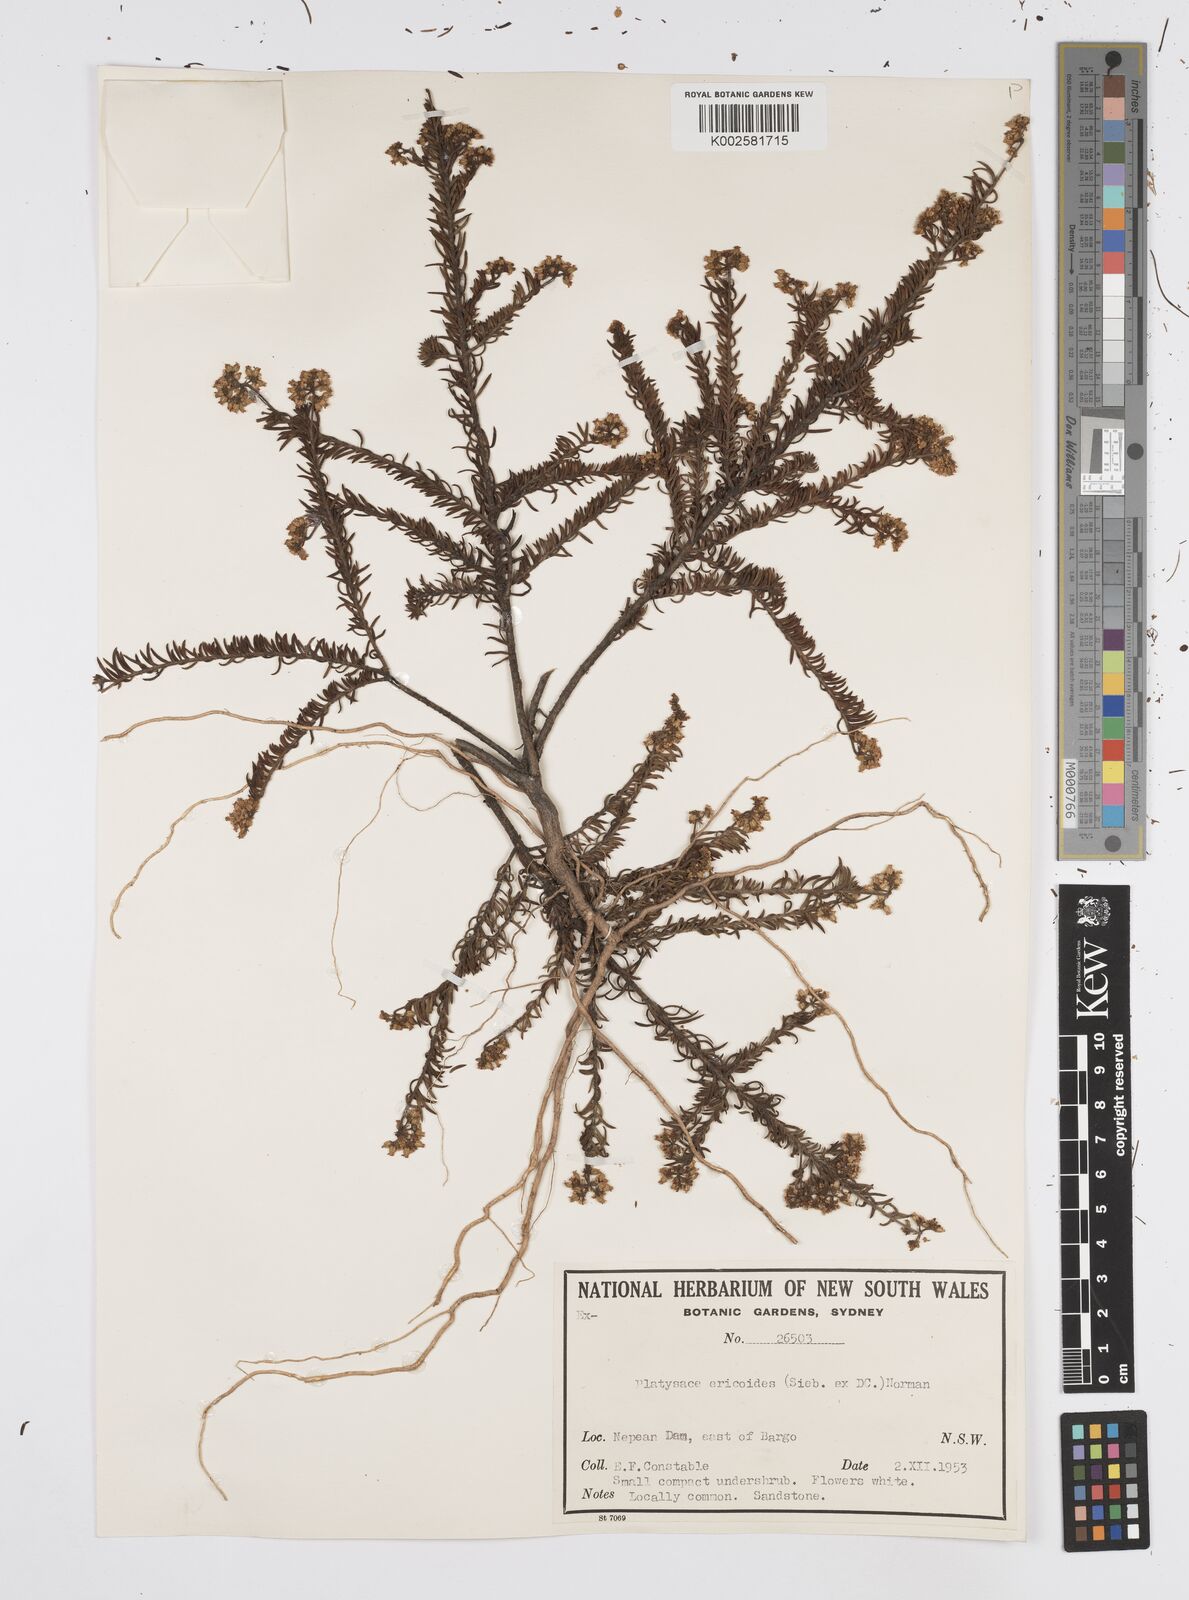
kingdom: Plantae
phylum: Tracheophyta
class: Magnoliopsida
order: Apiales
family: Apiaceae
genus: Platysace
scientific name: Platysace ericoides
